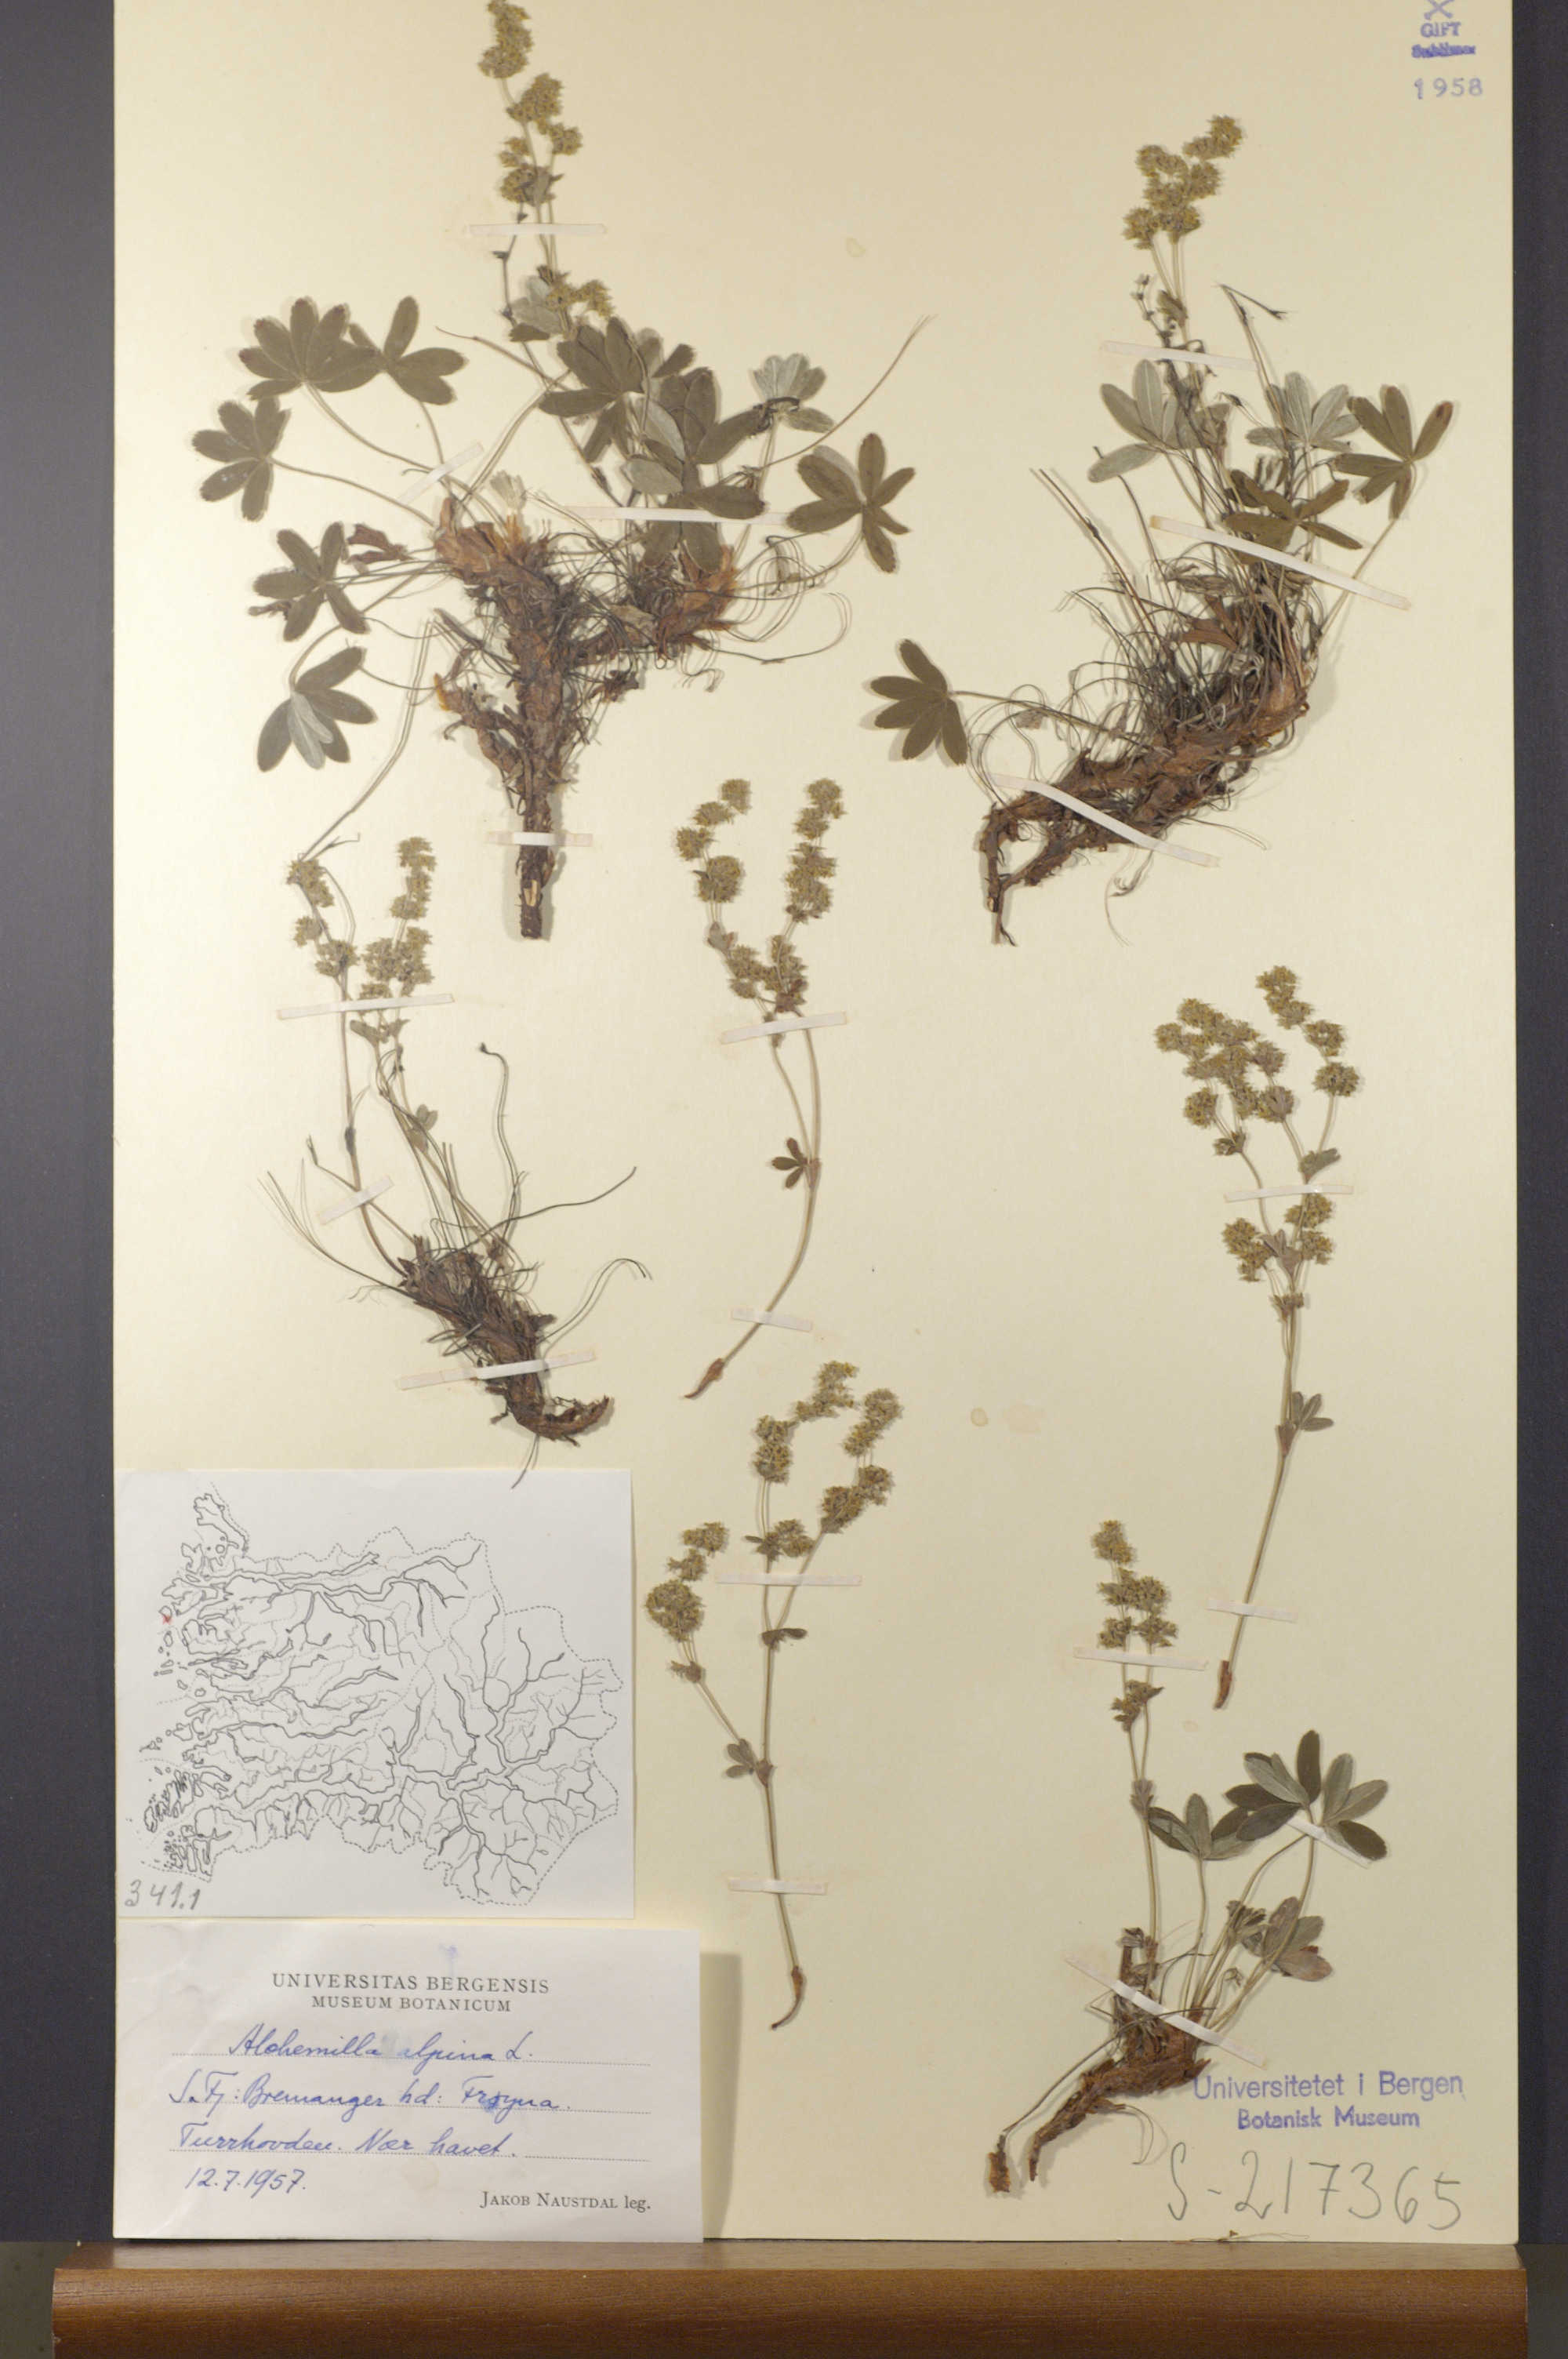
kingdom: Plantae
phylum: Tracheophyta
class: Magnoliopsida
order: Rosales
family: Rosaceae
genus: Alchemilla
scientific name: Alchemilla alpina
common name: Alpine lady's-mantle
